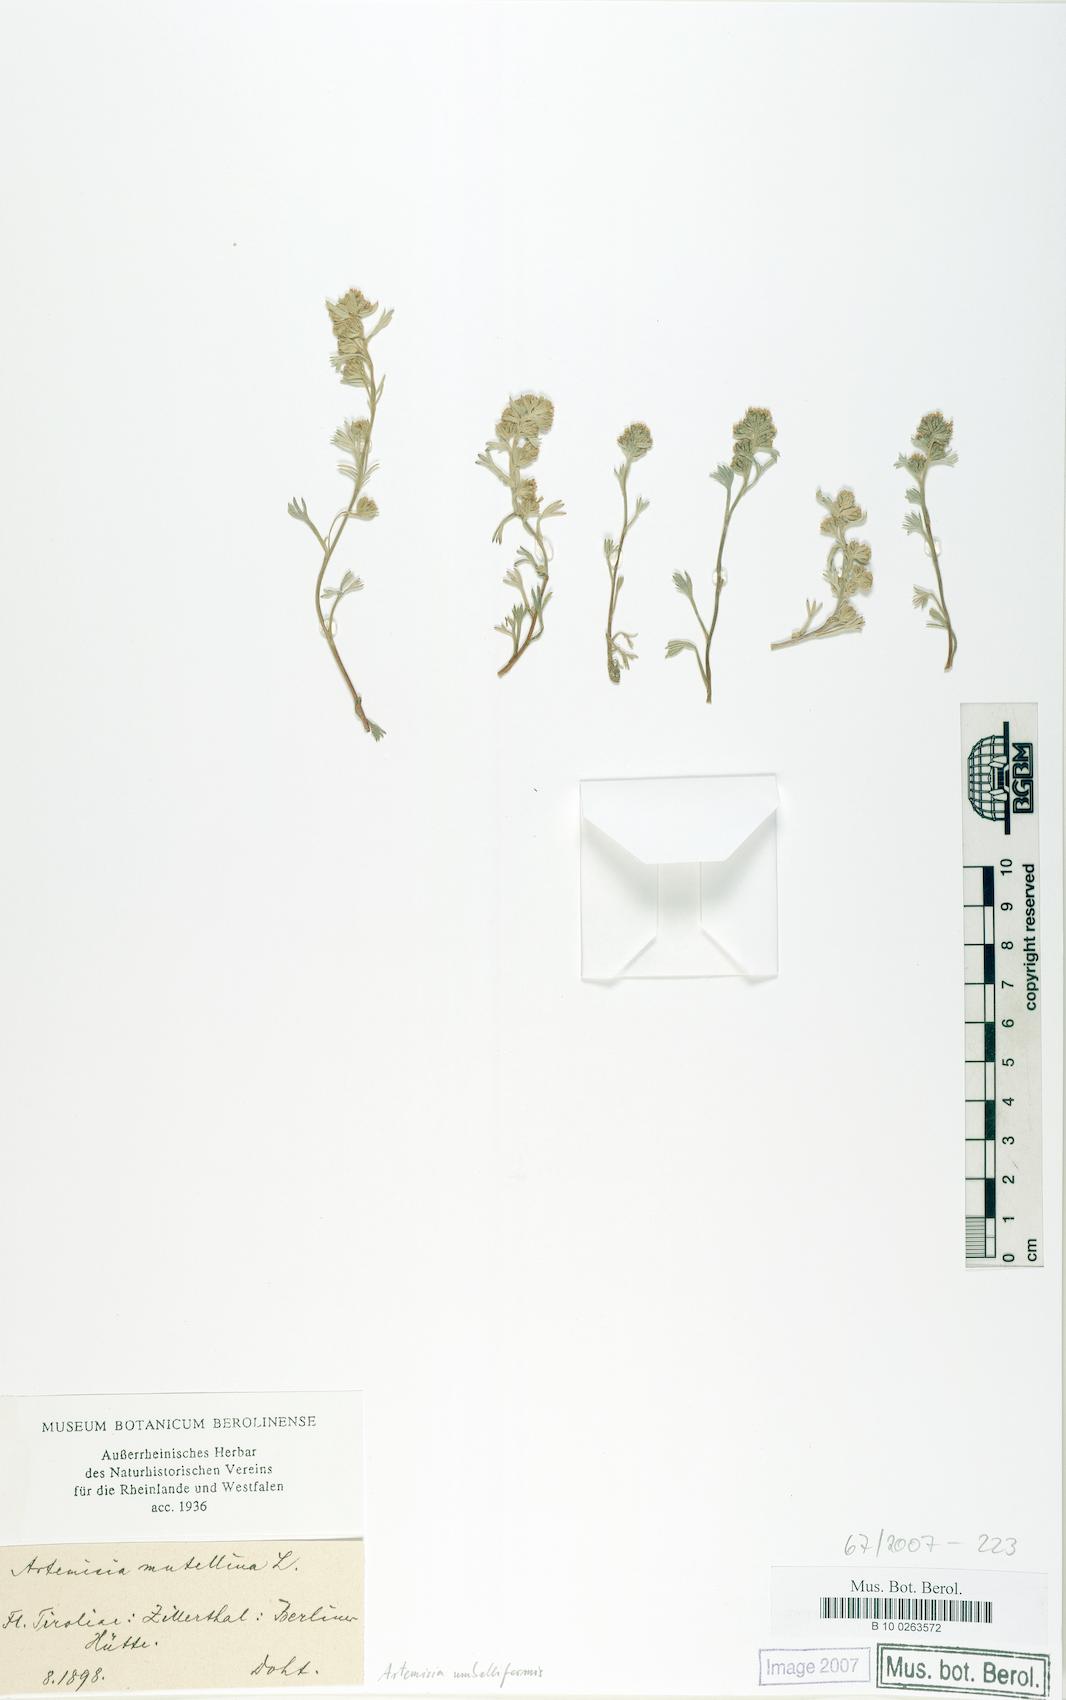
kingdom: Plantae
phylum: Tracheophyta
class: Magnoliopsida
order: Asterales
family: Asteraceae
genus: Artemisia
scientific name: Artemisia umbelliformis
